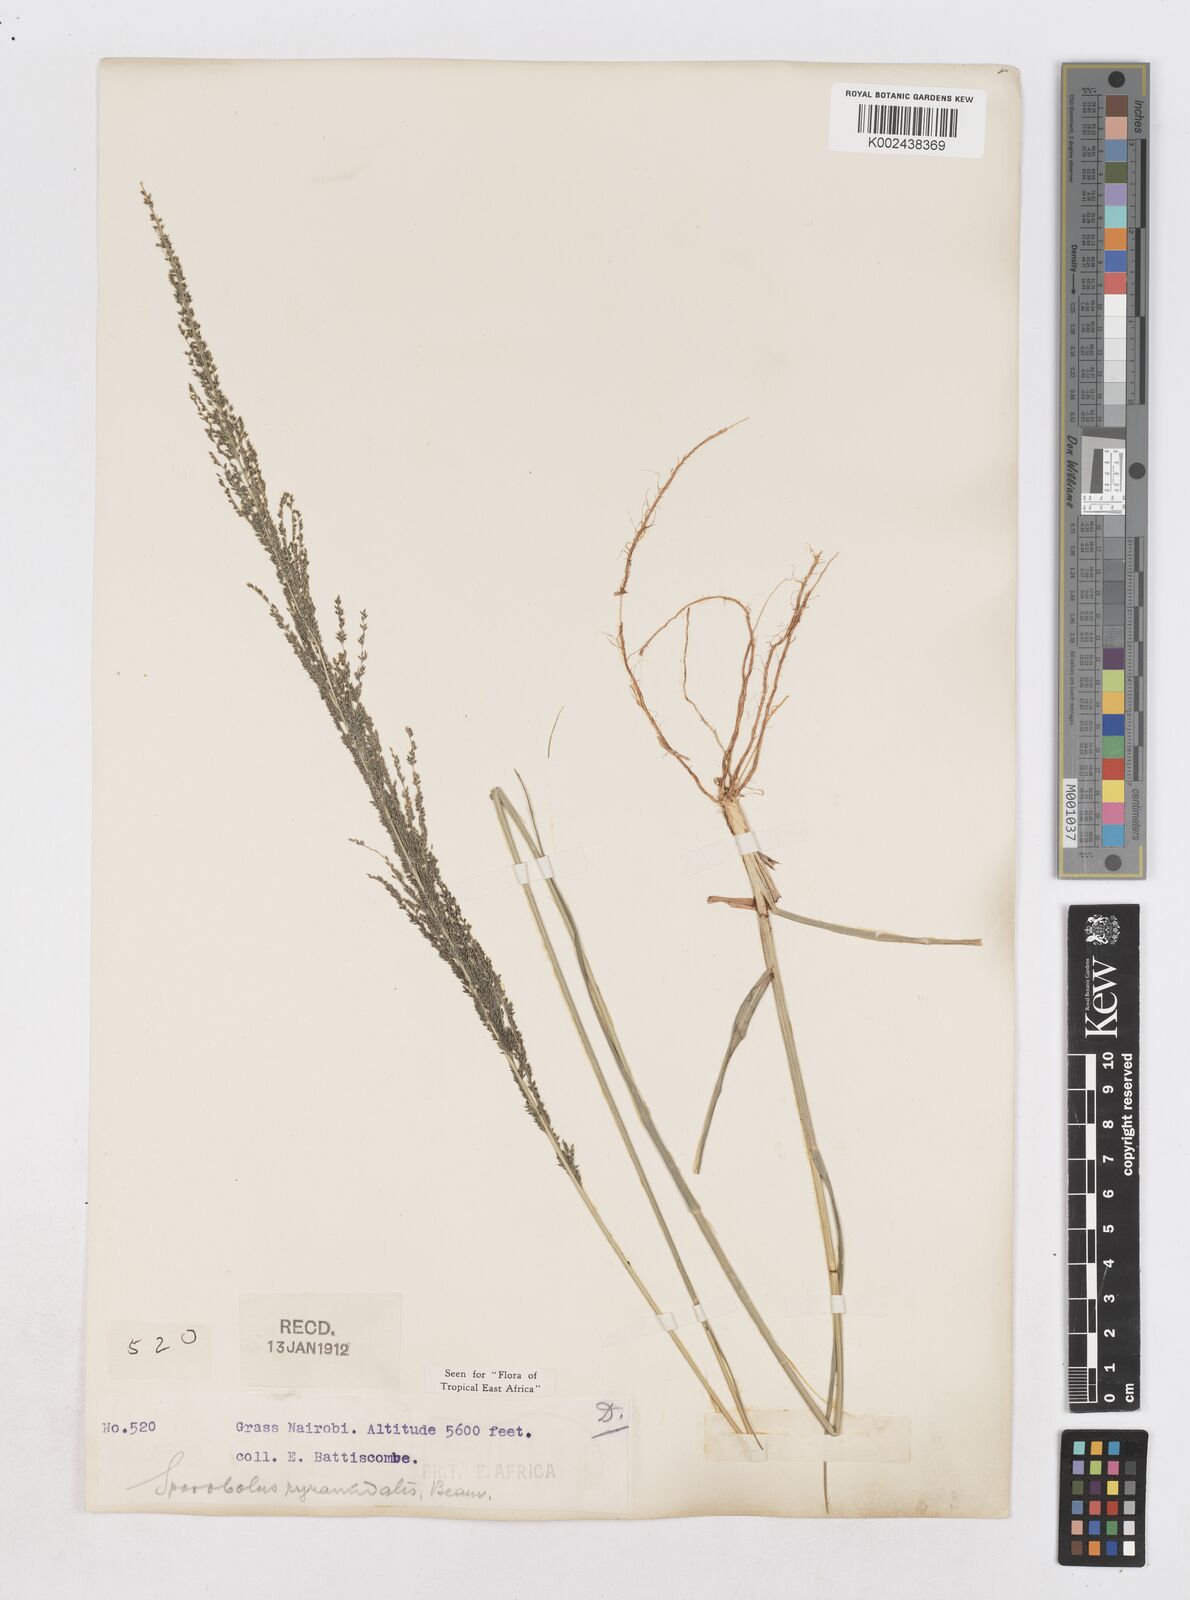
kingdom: Plantae
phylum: Tracheophyta
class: Liliopsida
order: Poales
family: Poaceae
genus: Sporobolus
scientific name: Sporobolus pyramidalis
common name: West indian dropseed
